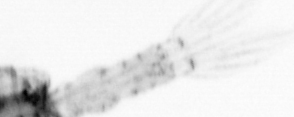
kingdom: Animalia
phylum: Arthropoda
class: Copepoda
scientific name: Copepoda
